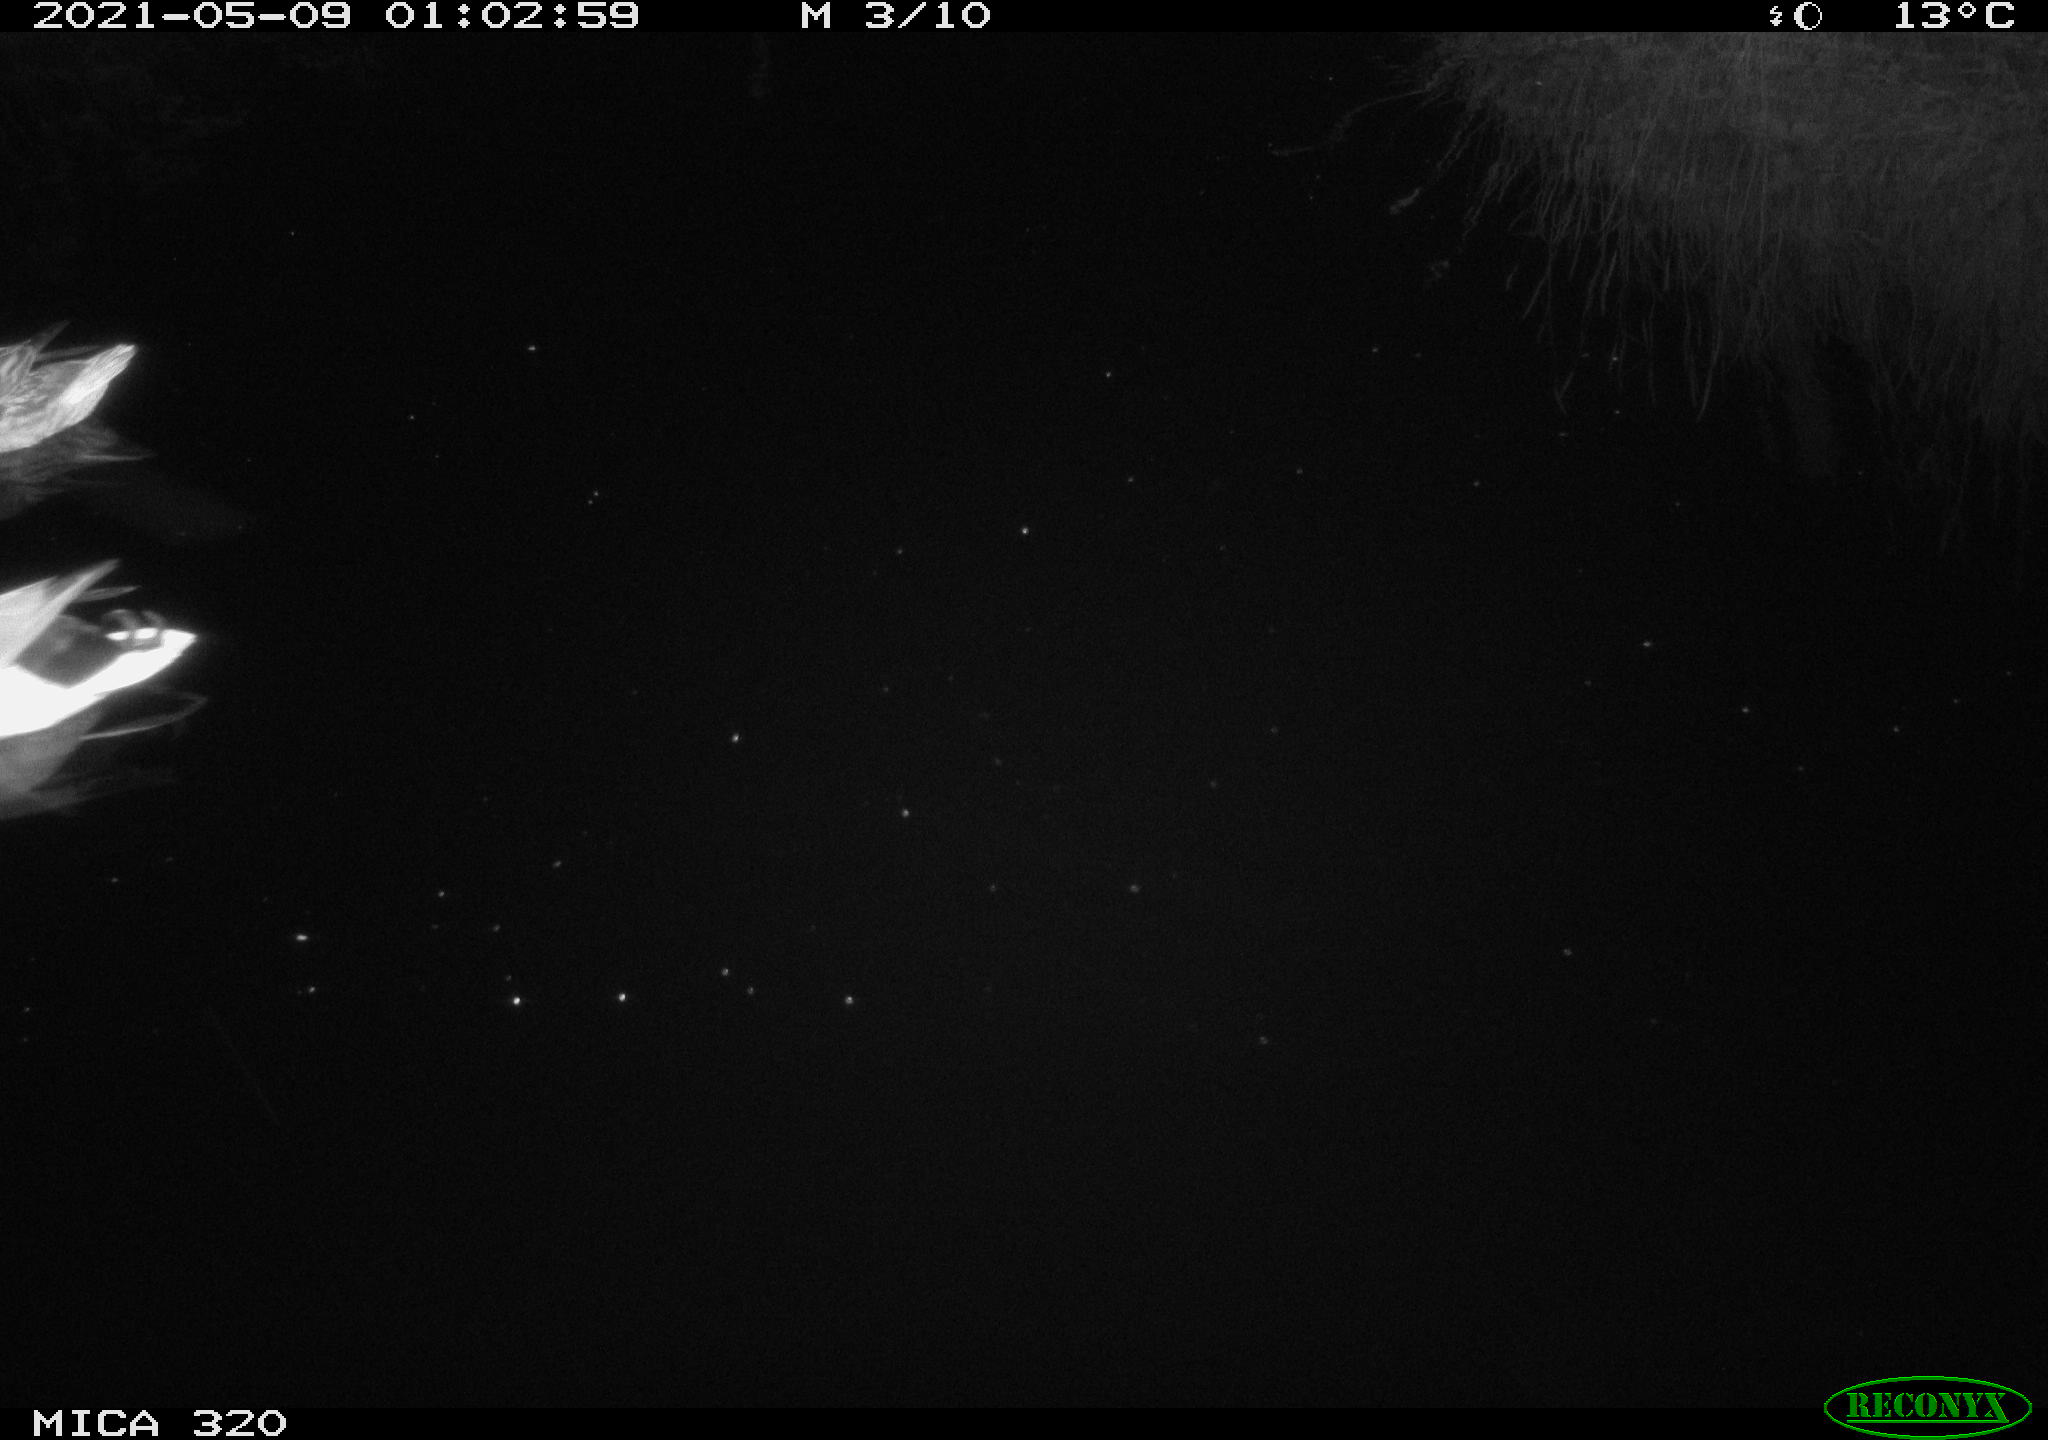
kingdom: Animalia
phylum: Chordata
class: Aves
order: Anseriformes
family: Anatidae
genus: Anas
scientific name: Anas platyrhynchos
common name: Mallard
